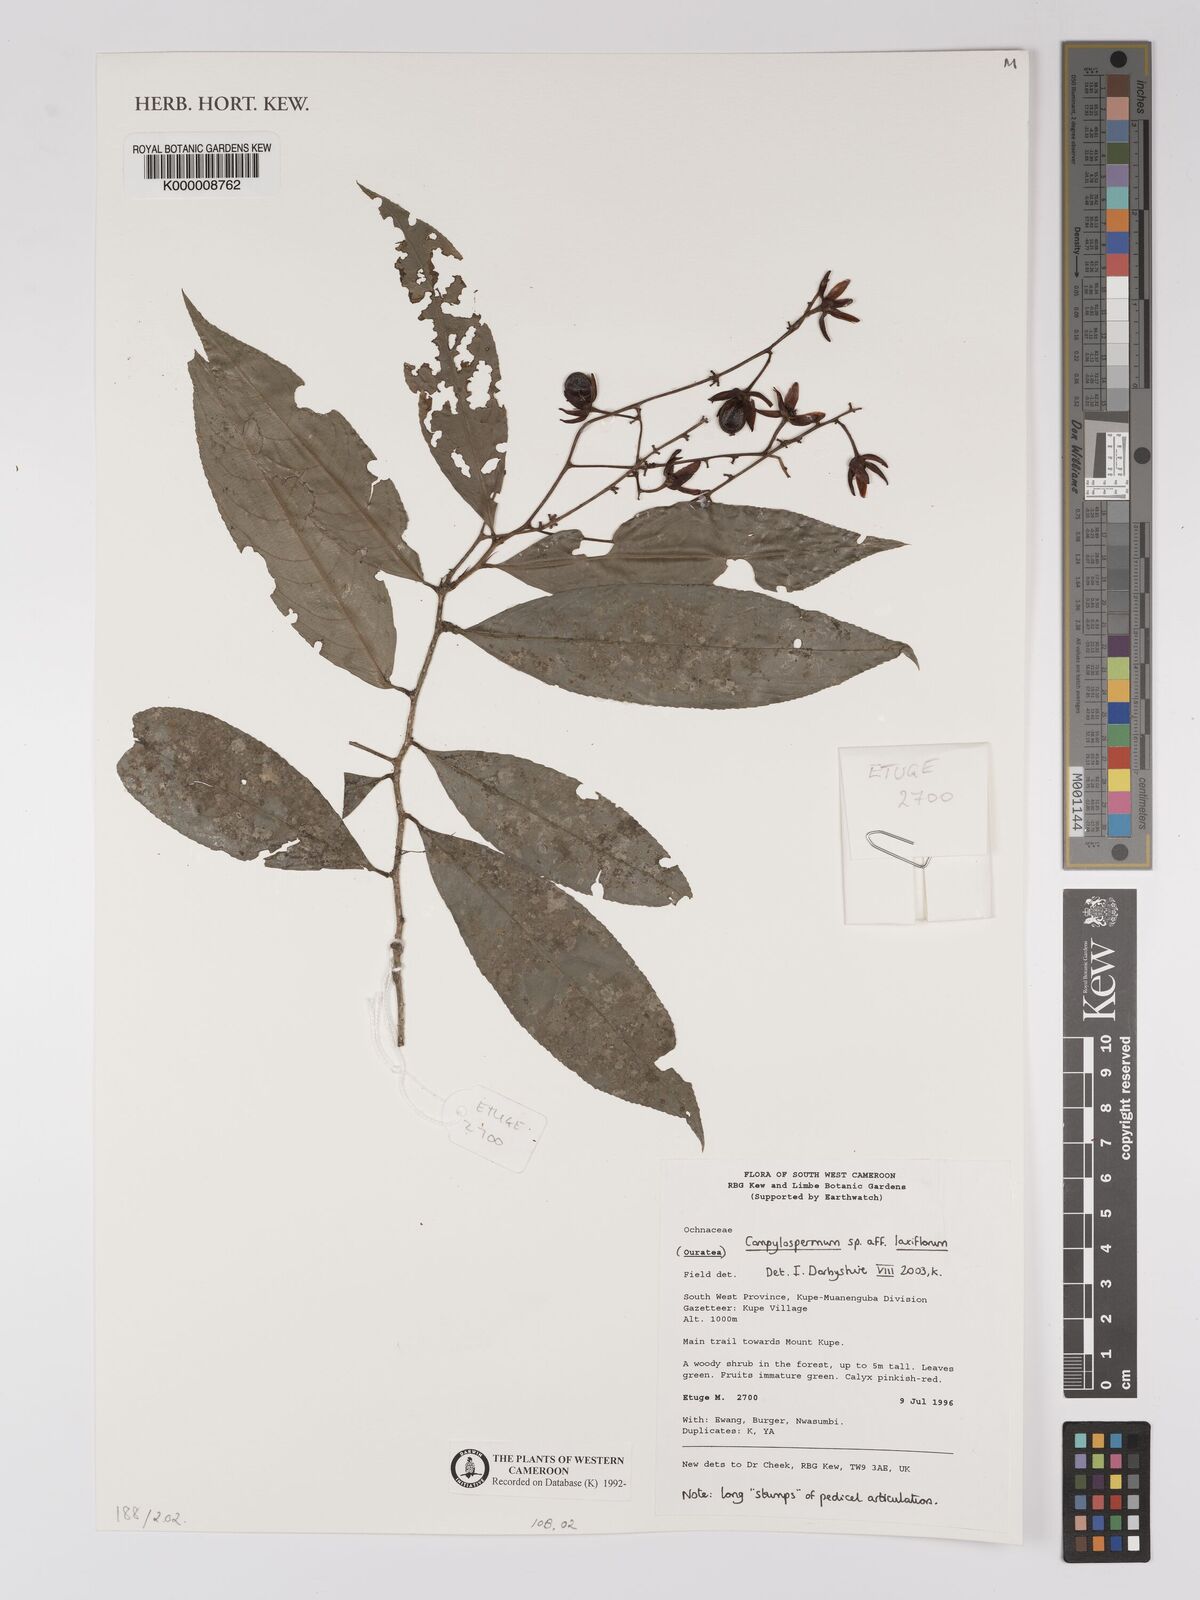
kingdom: Plantae
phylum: Tracheophyta
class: Magnoliopsida
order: Malpighiales
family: Ochnaceae
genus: Campylospermum
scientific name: Campylospermum laxiflorum
